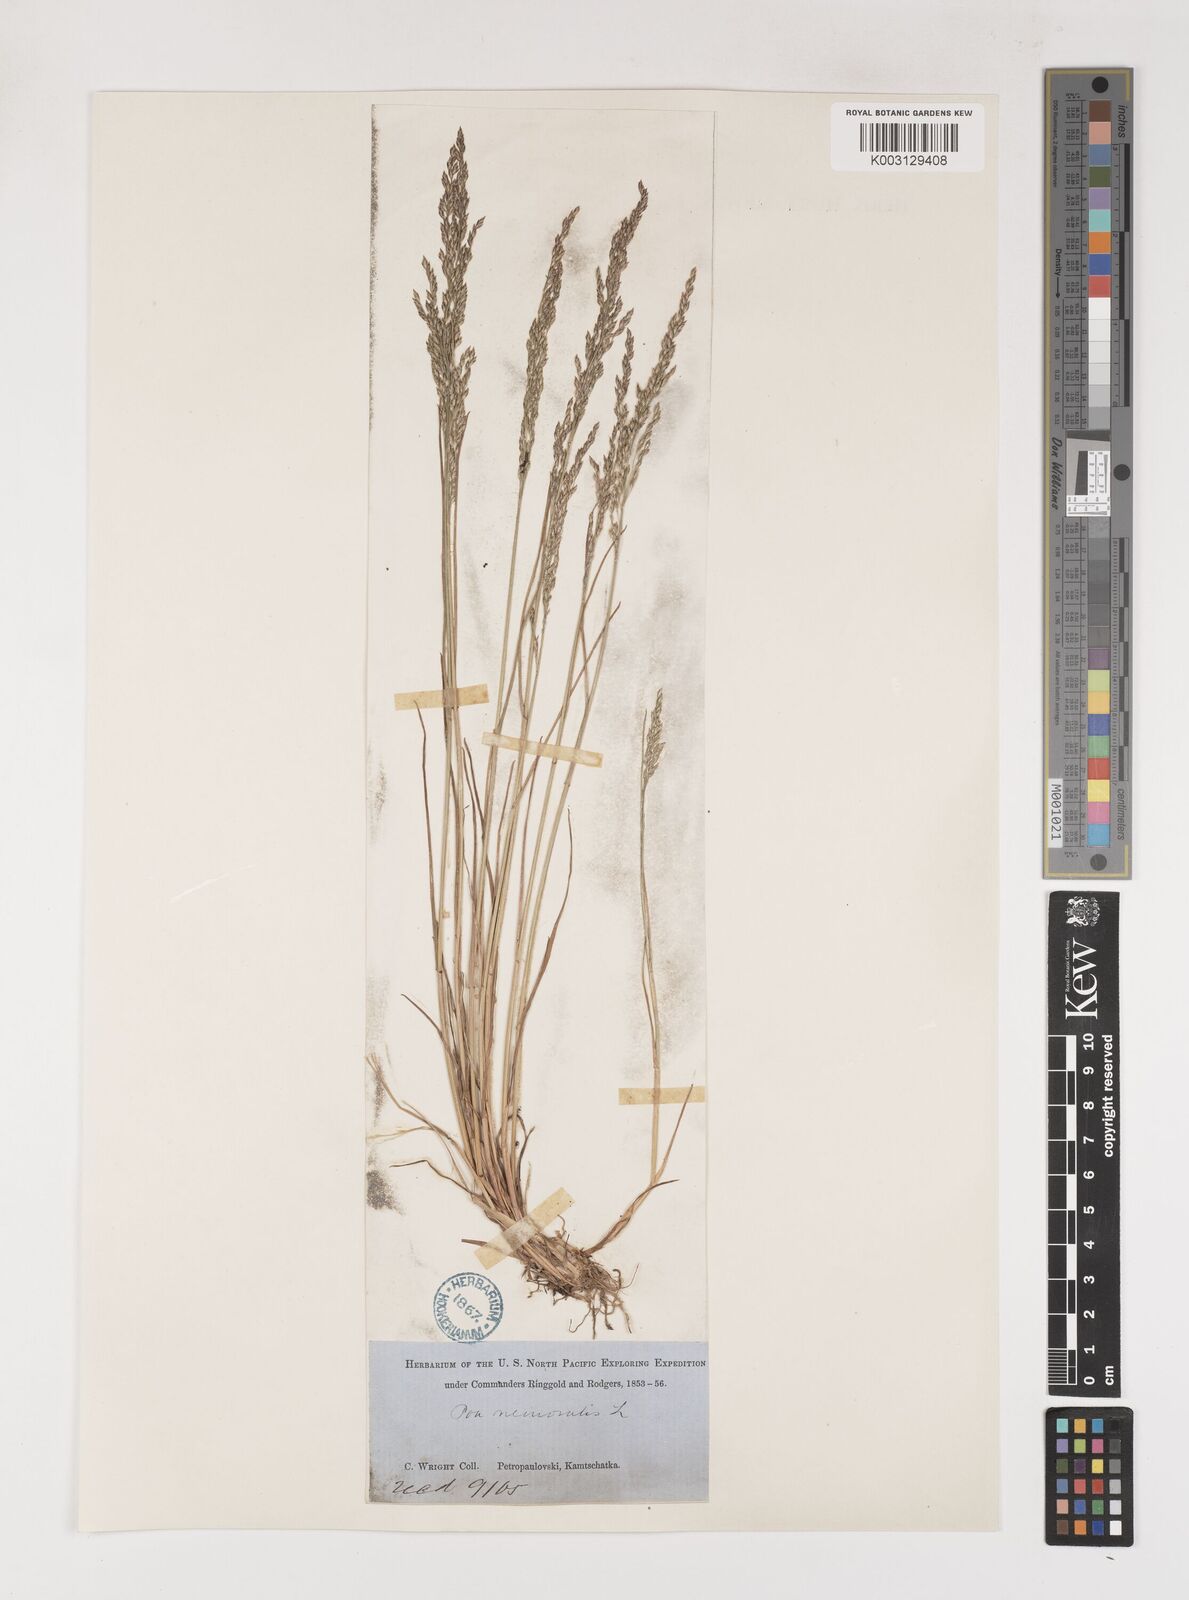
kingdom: Plantae
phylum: Tracheophyta
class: Liliopsida
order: Poales
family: Poaceae
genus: Poa
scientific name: Poa versicolor
